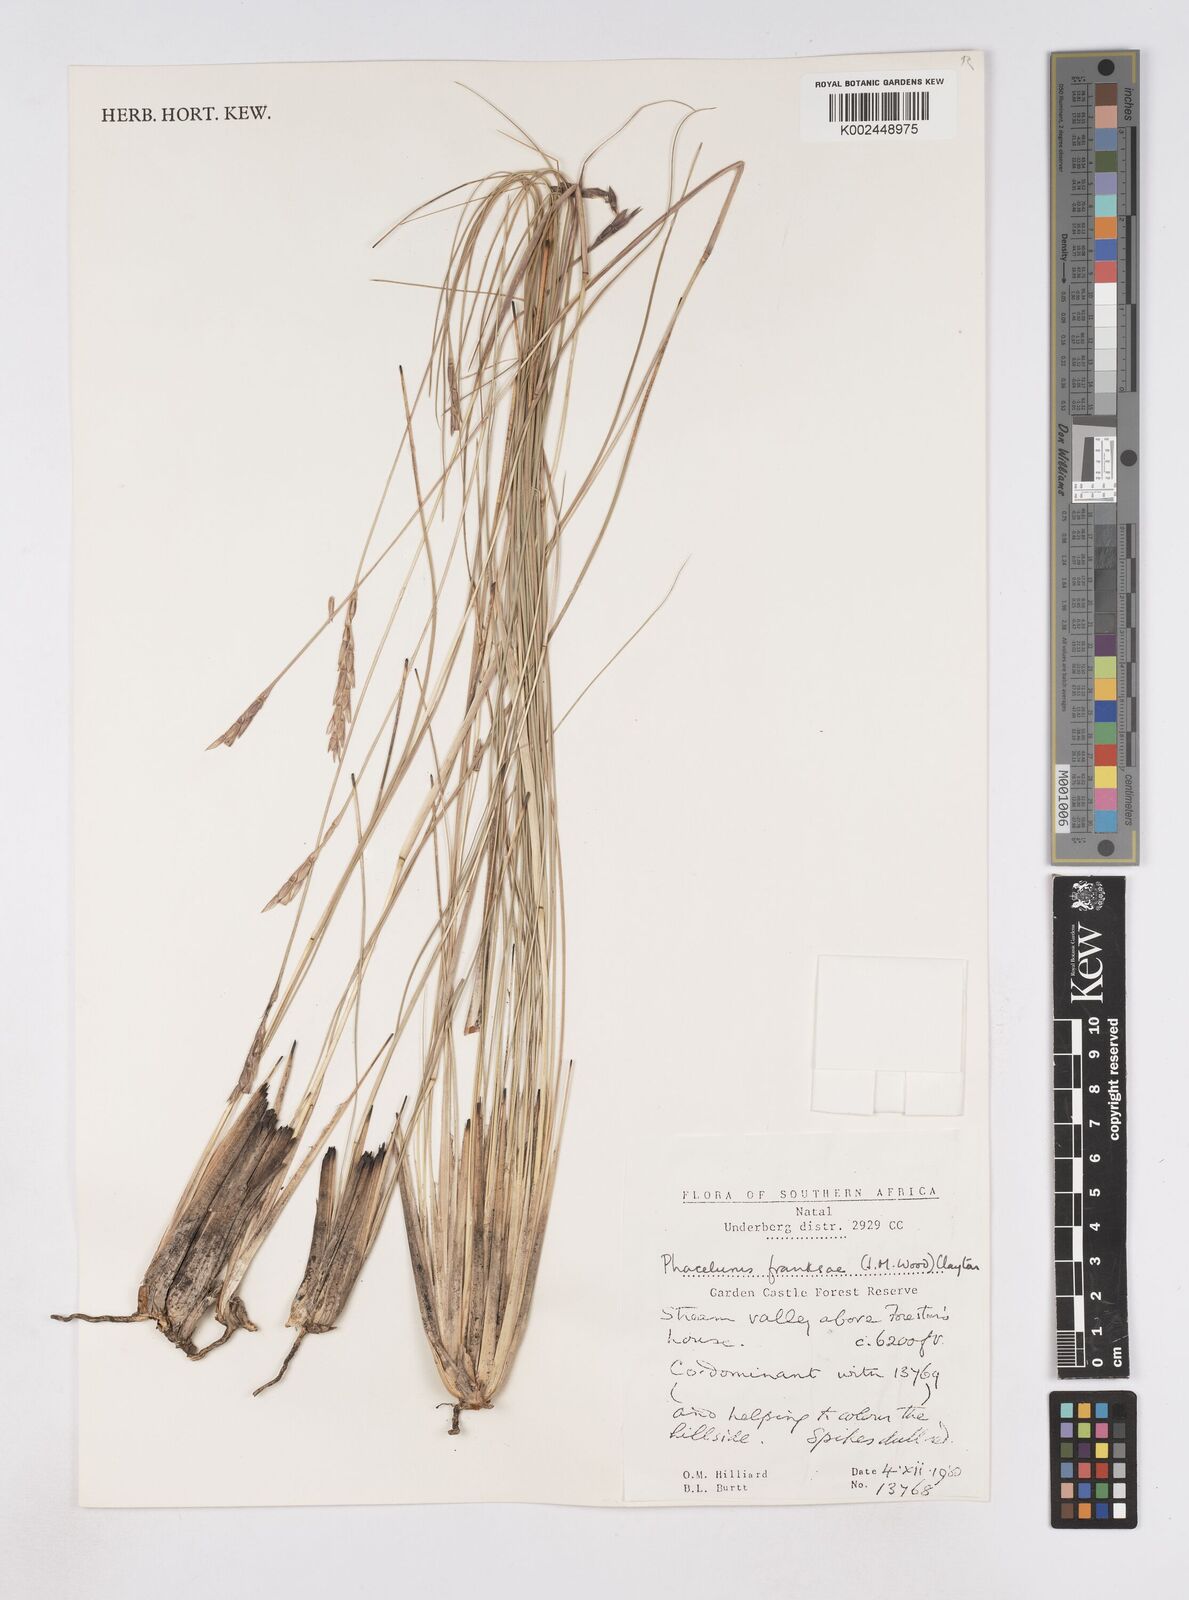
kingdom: Plantae
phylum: Tracheophyta
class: Liliopsida
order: Poales
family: Poaceae
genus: Phacelurus
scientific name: Phacelurus franksiae
